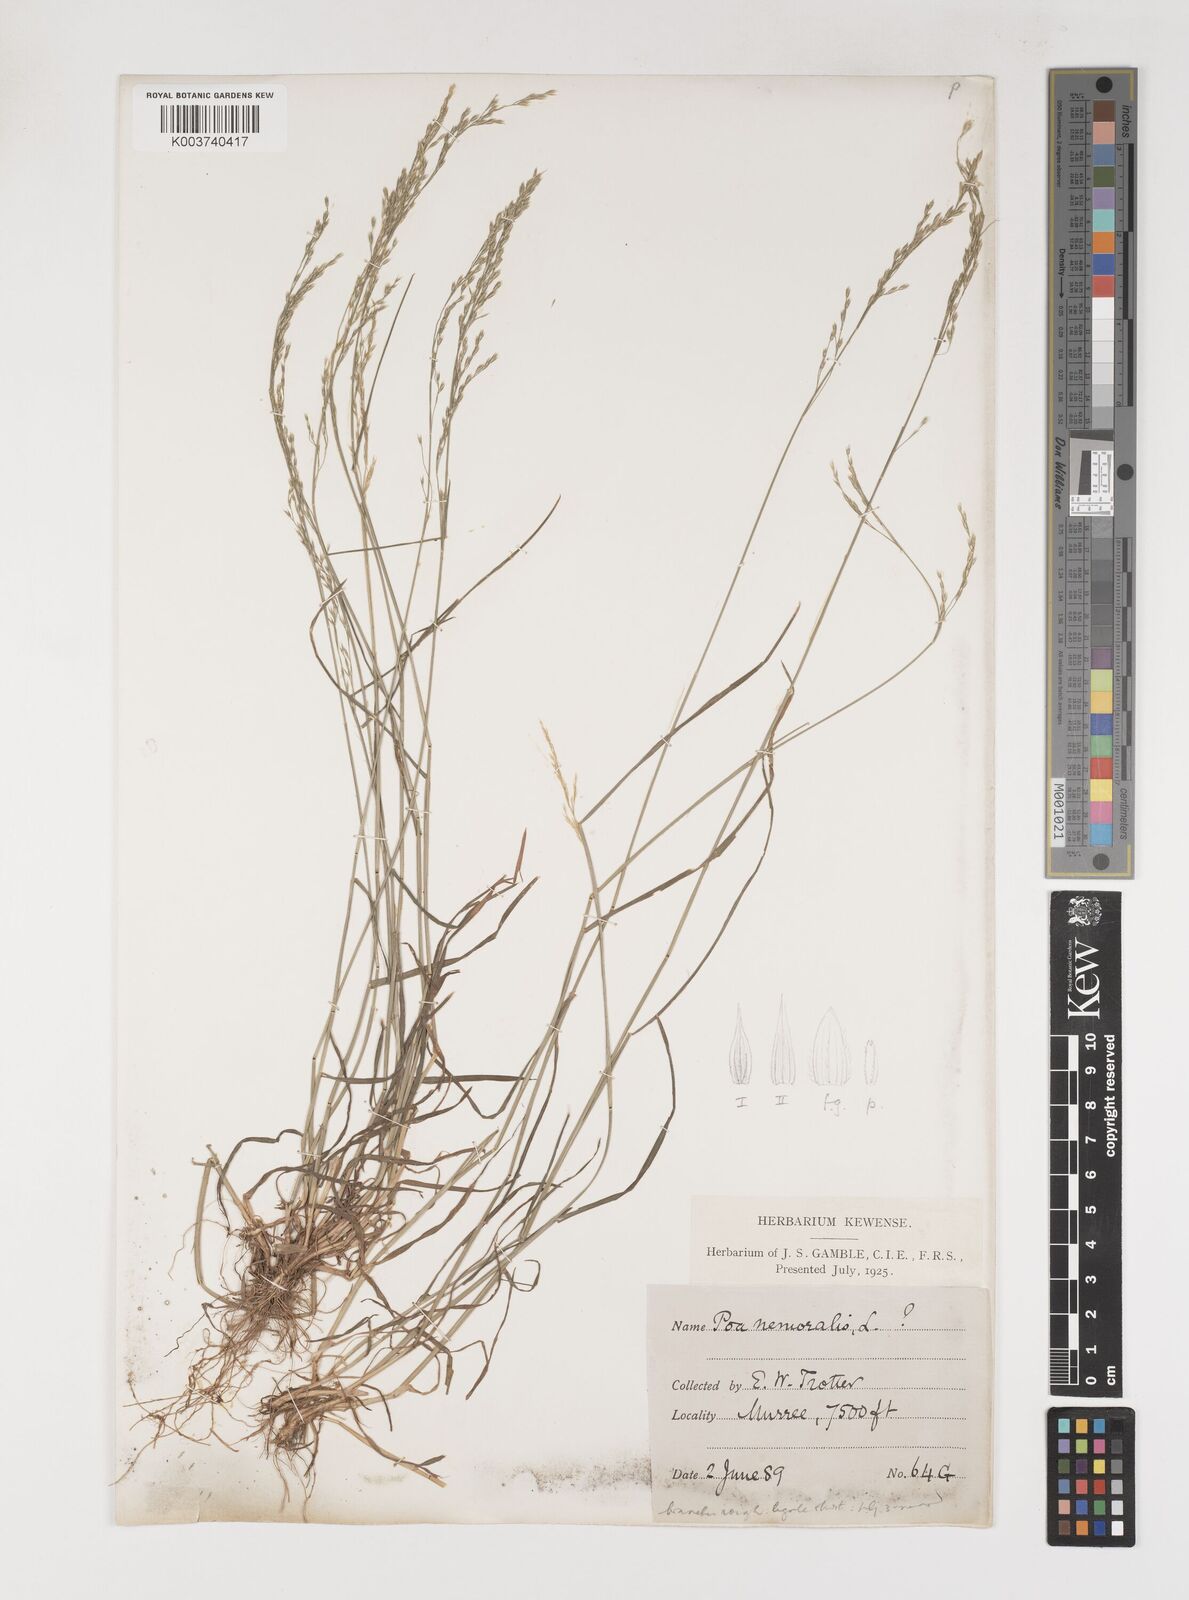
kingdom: Plantae
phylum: Tracheophyta
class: Liliopsida
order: Poales
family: Poaceae
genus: Poa
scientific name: Poa nemoralis
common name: Wood bluegrass
